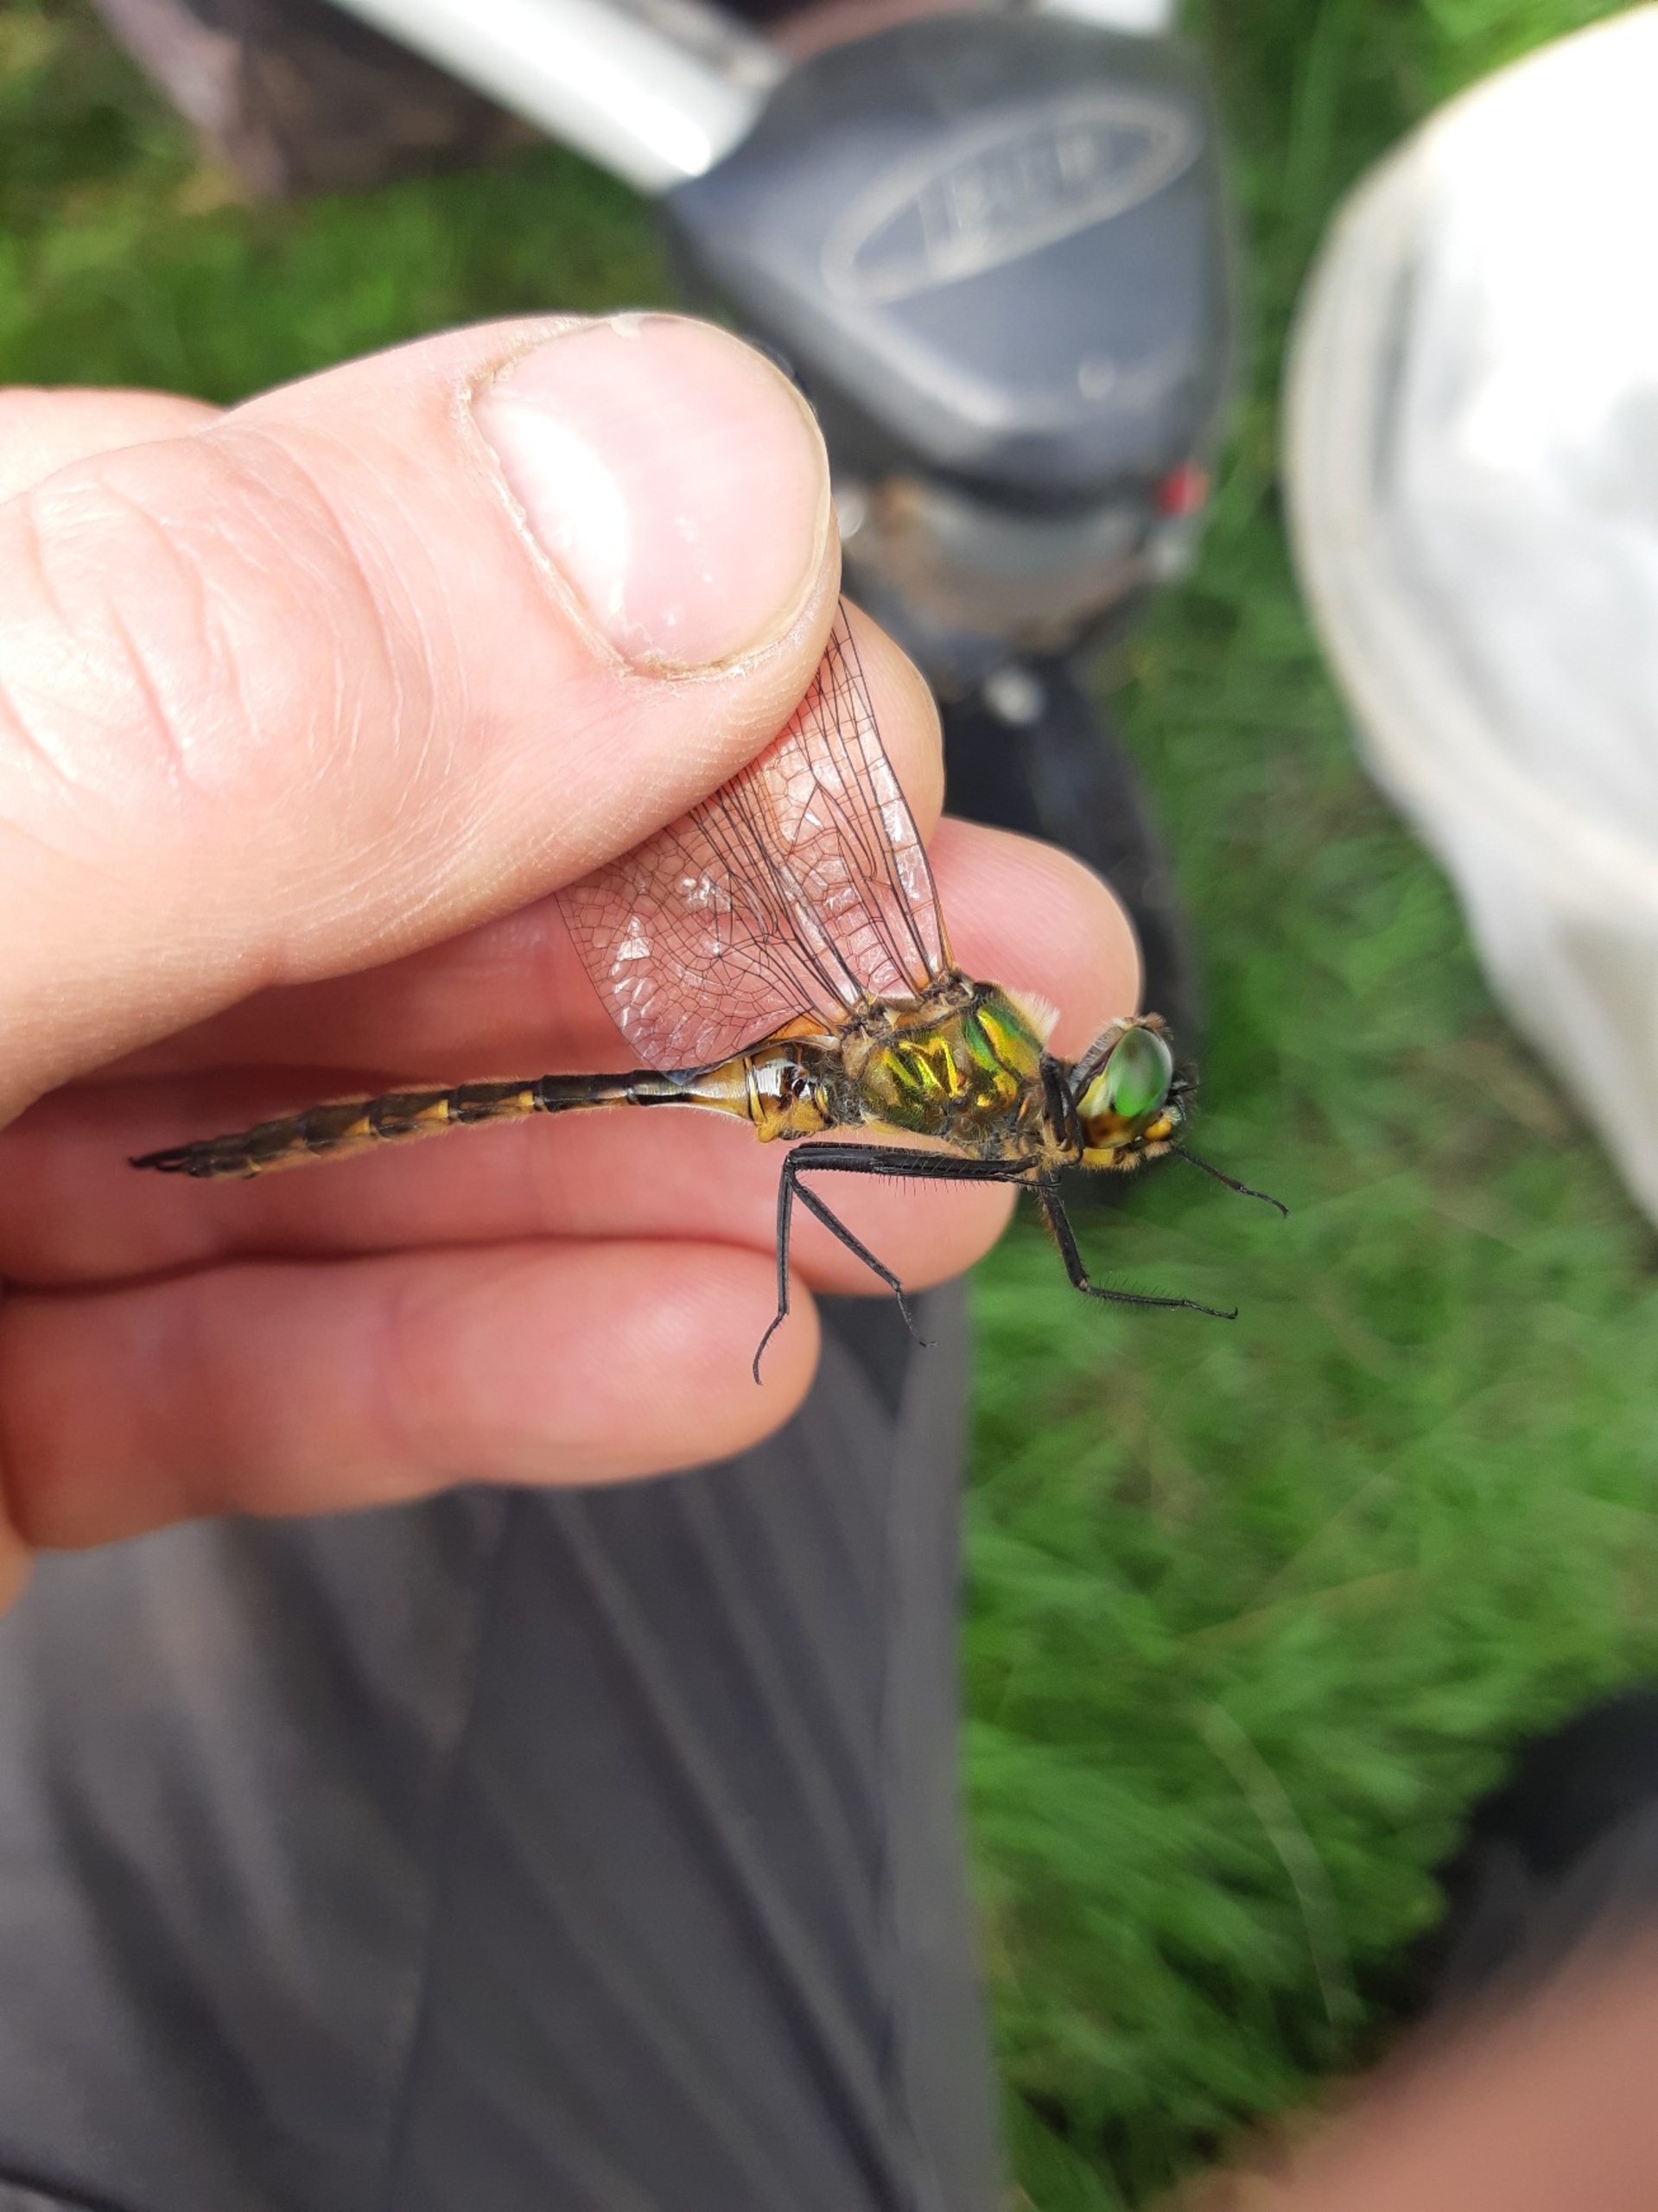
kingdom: Animalia
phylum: Arthropoda
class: Insecta
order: Odonata
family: Corduliidae
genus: Somatochlora
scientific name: Somatochlora flavomaculata
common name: Plettet smaragdlibel
